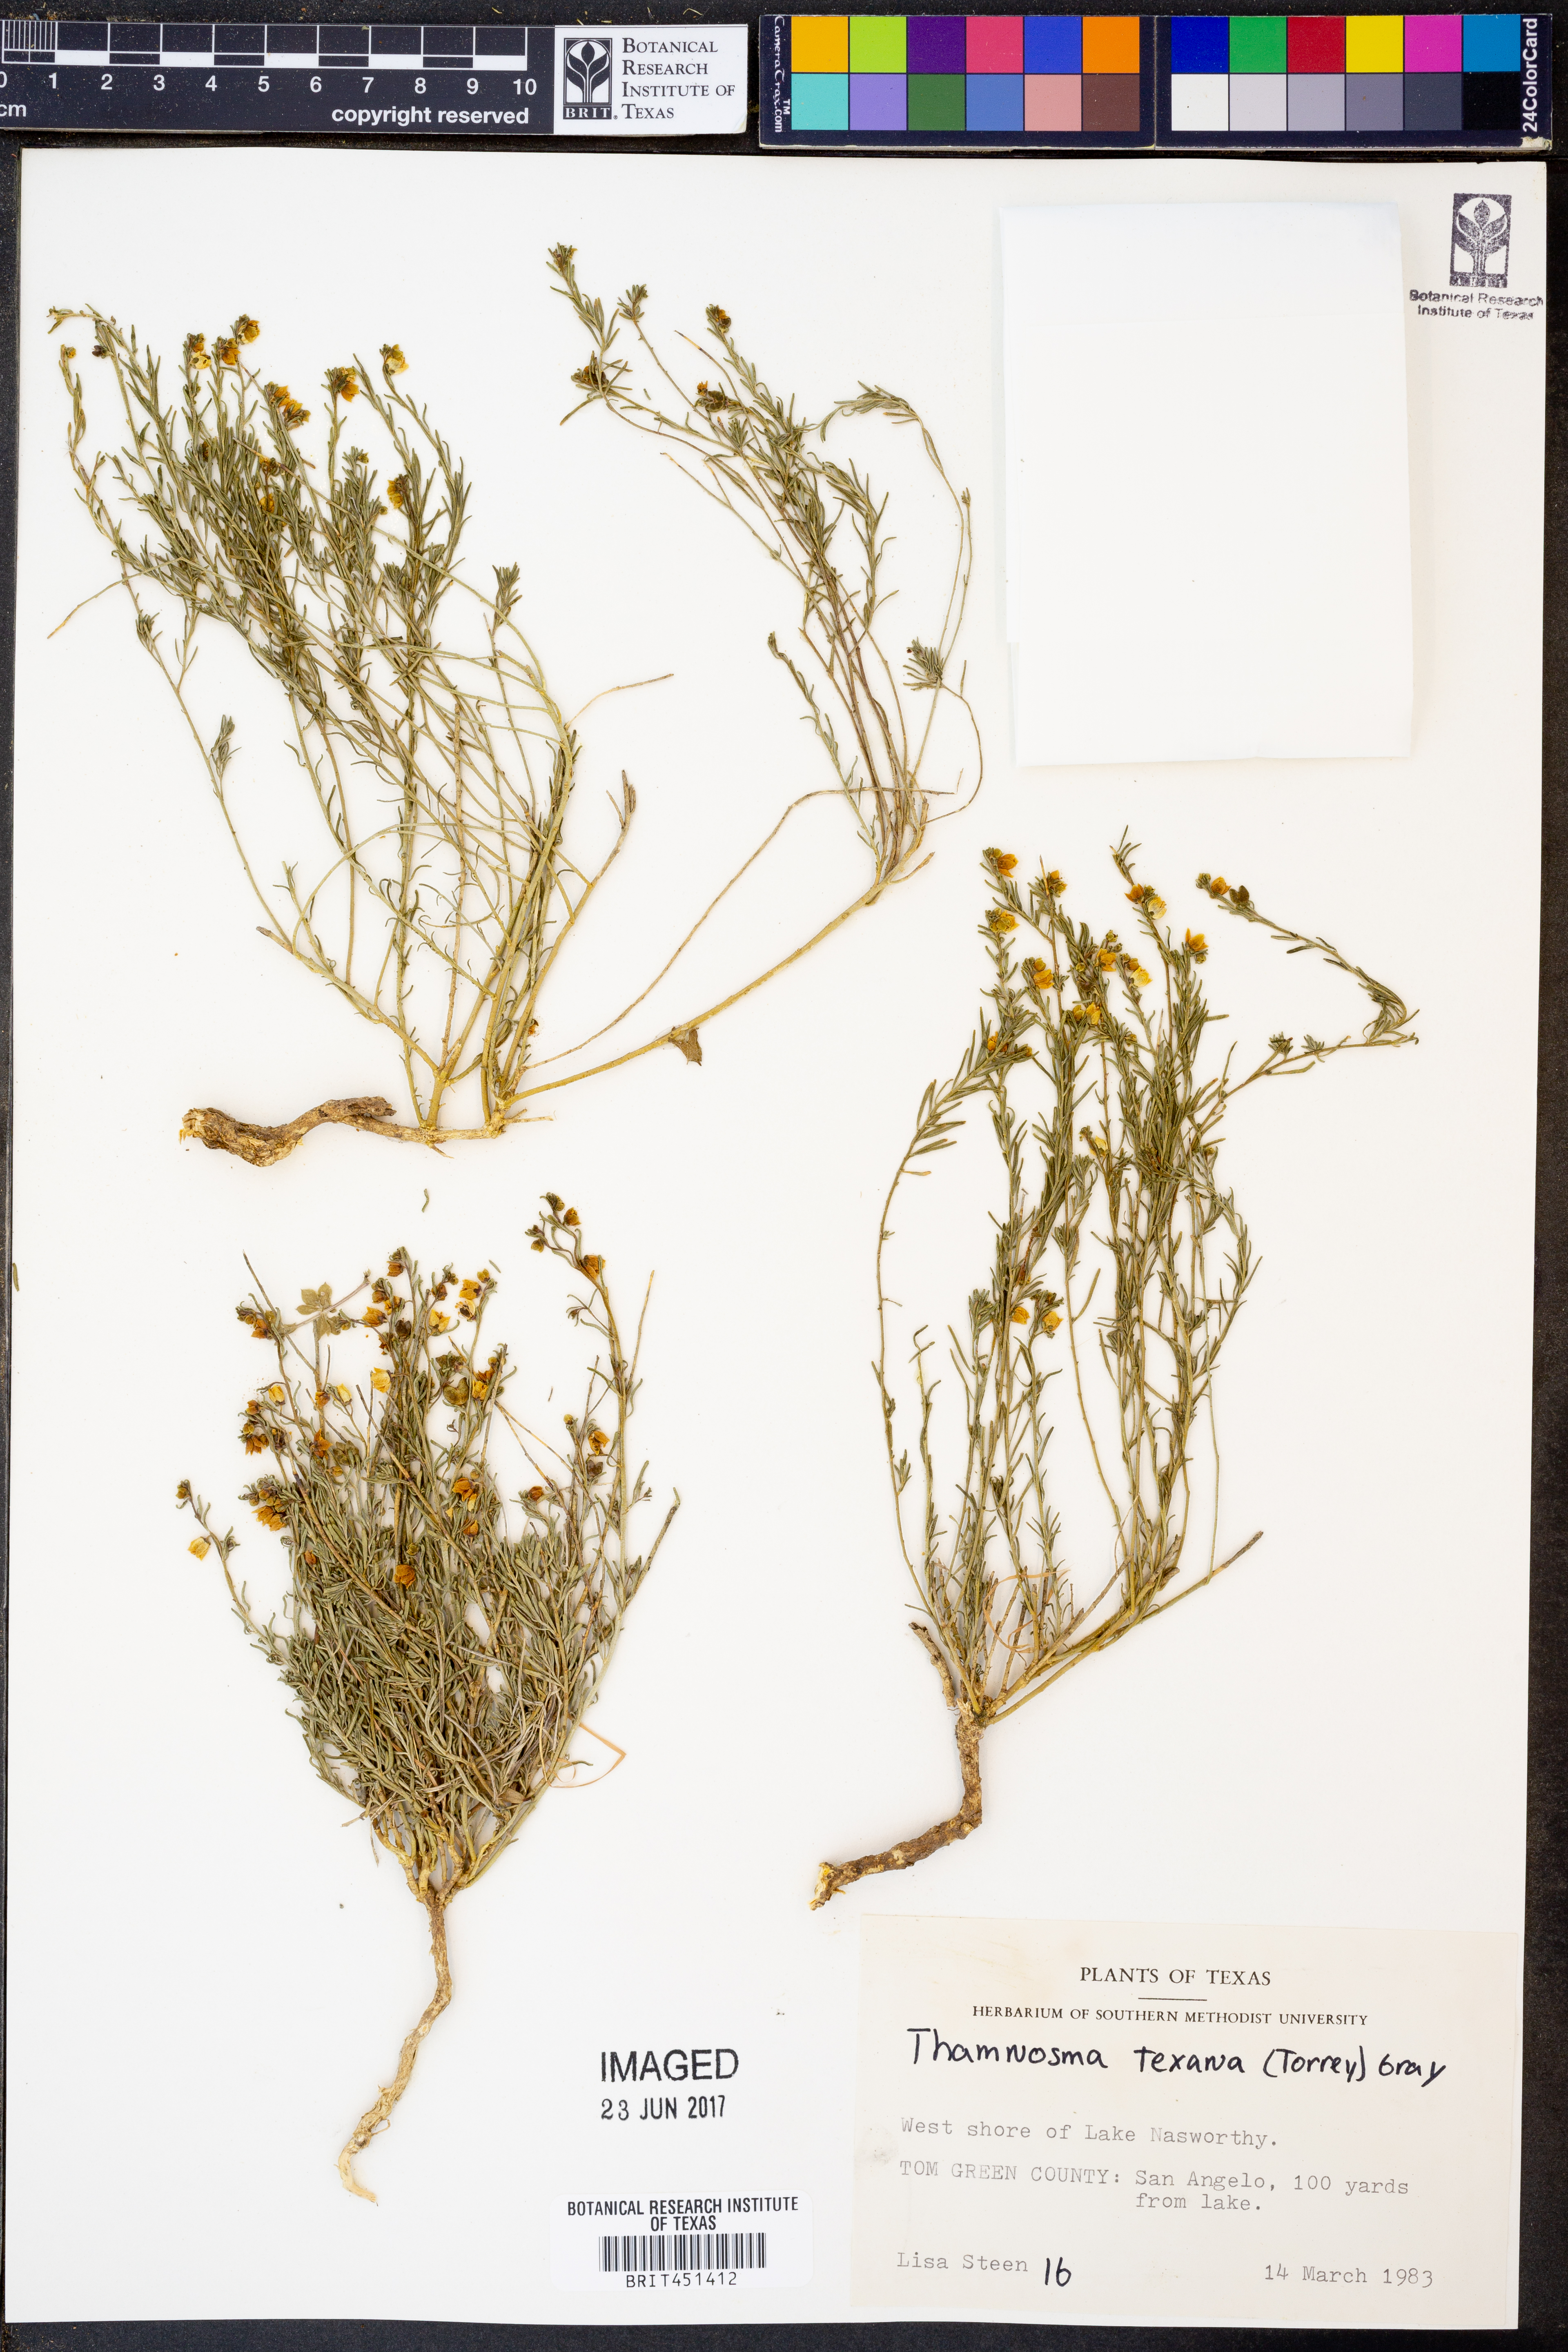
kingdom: Plantae
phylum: Tracheophyta
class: Magnoliopsida
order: Sapindales
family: Rutaceae
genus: Thamnosma
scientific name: Thamnosma texana
